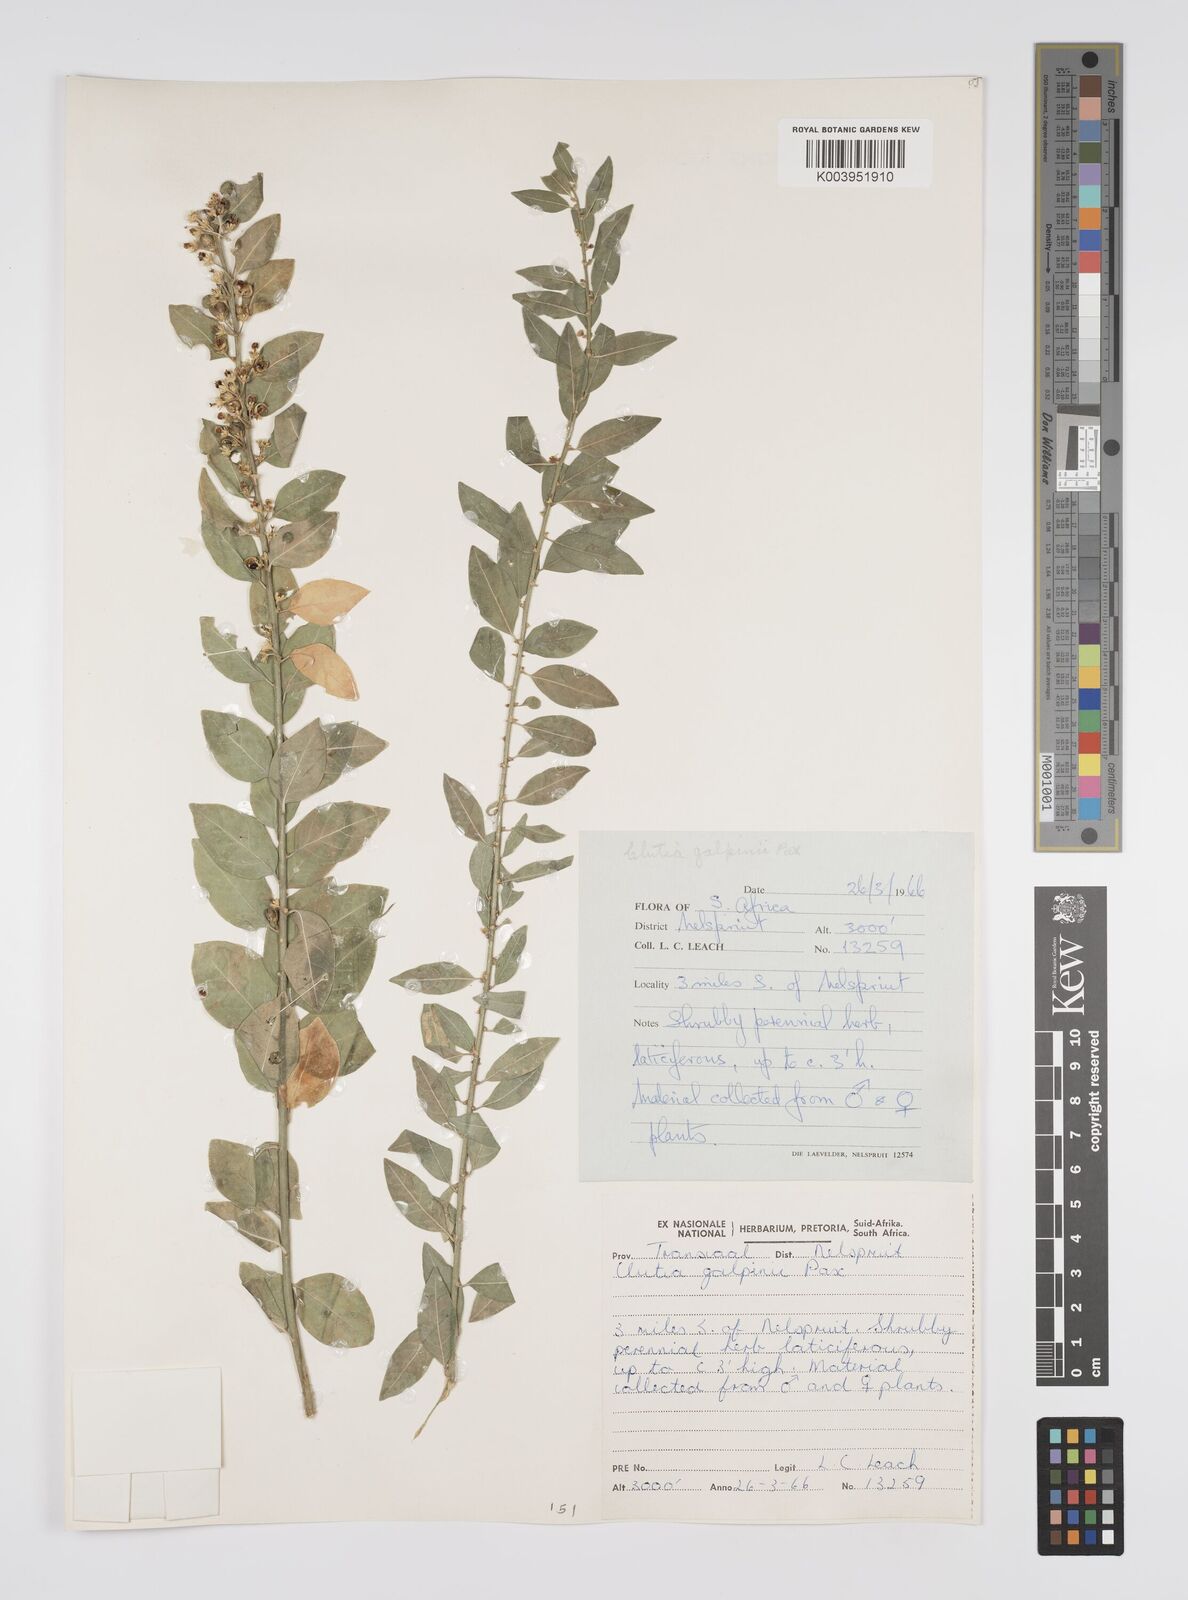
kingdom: Plantae
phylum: Tracheophyta
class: Magnoliopsida
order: Malpighiales
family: Peraceae
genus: Clutia
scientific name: Clutia galpinii
